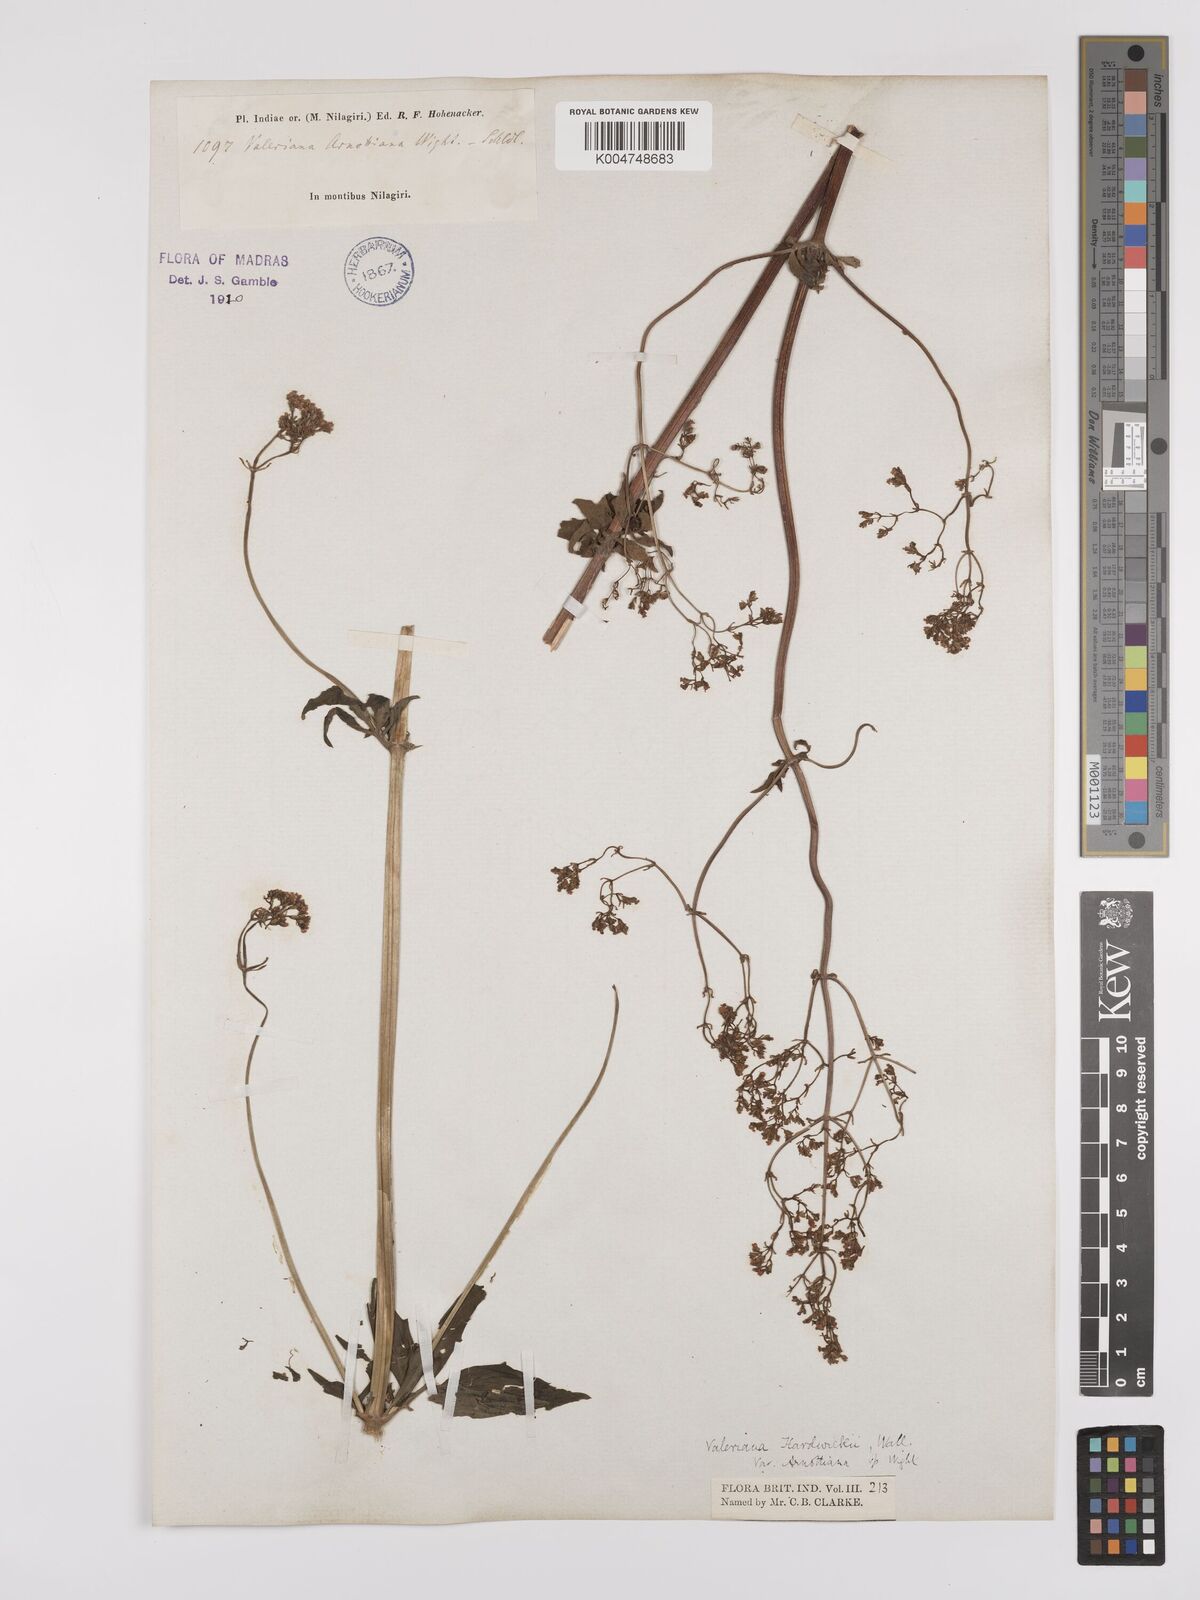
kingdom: Plantae
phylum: Tracheophyta
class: Magnoliopsida
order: Dipsacales
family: Caprifoliaceae
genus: Valeriana
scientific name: Valeriana hardwickei
